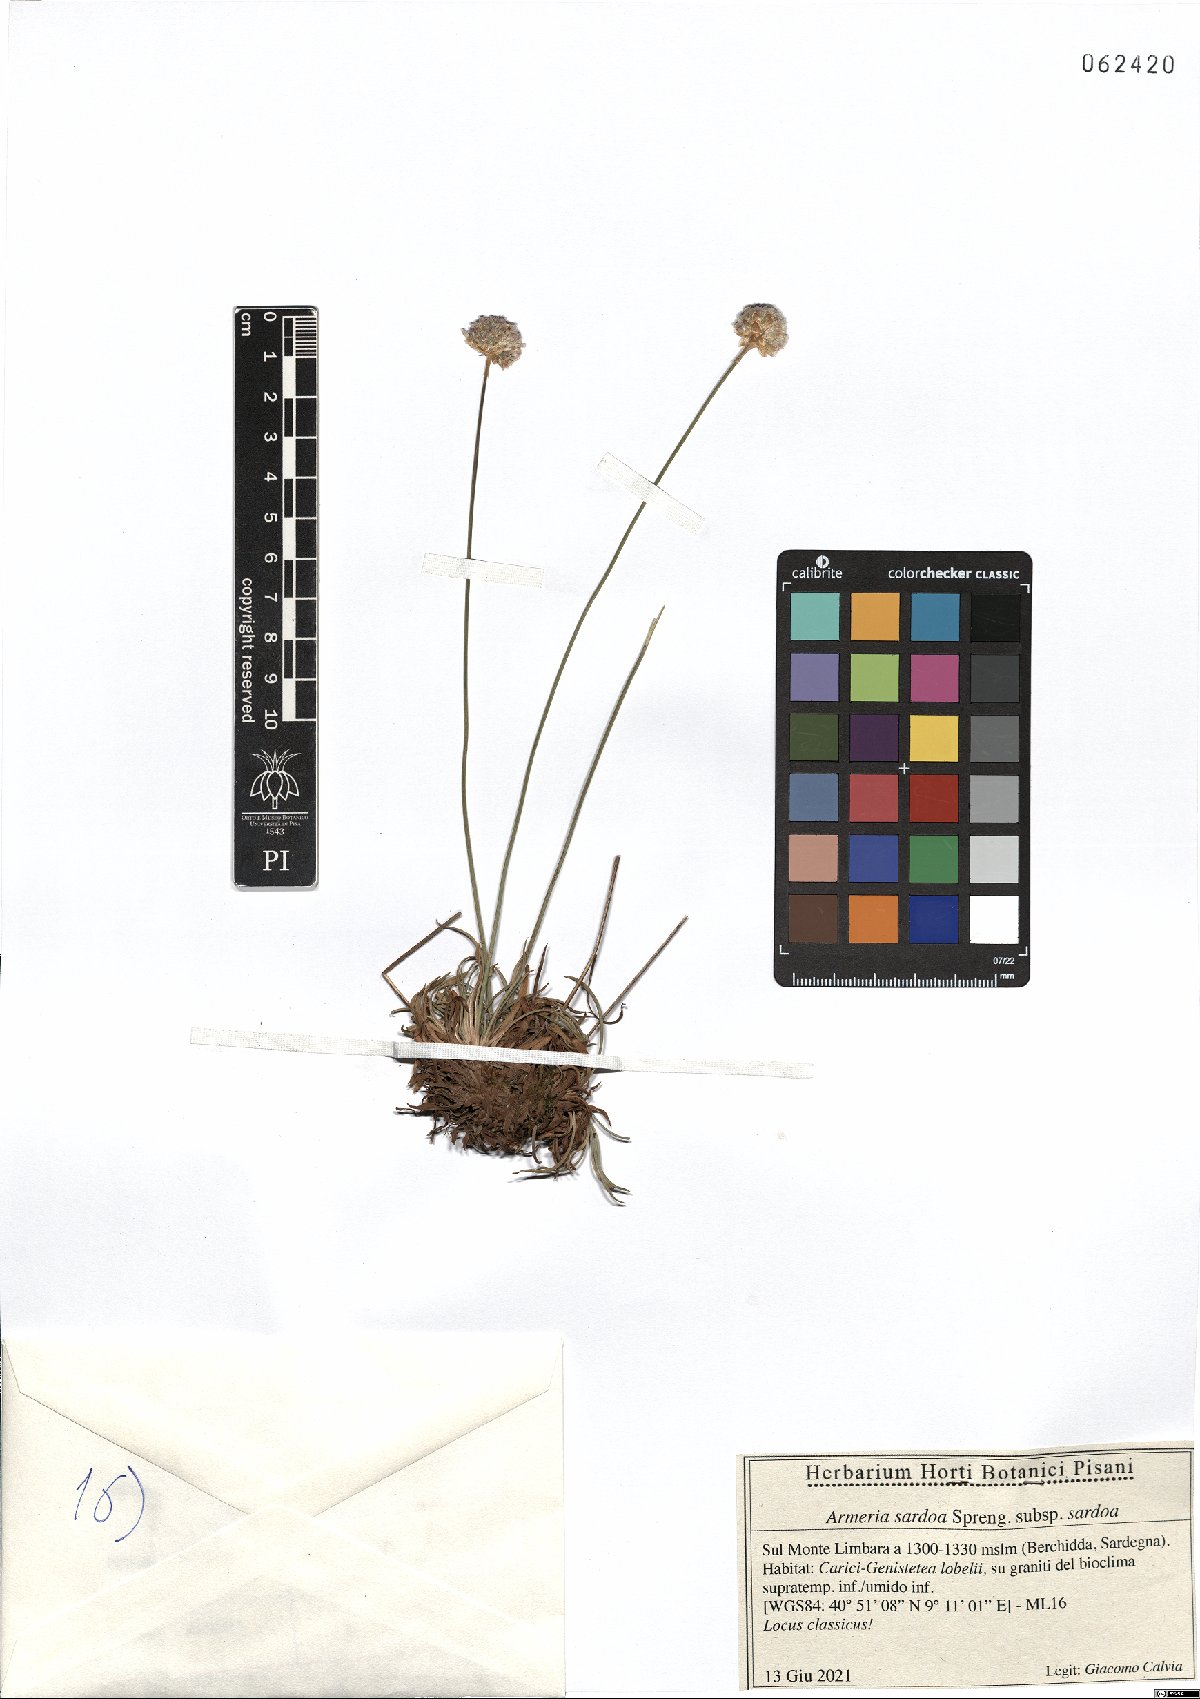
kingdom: Plantae
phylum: Tracheophyta
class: Magnoliopsida
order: Caryophyllales
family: Plumbaginaceae
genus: Armeria
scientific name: Armeria sardoa
